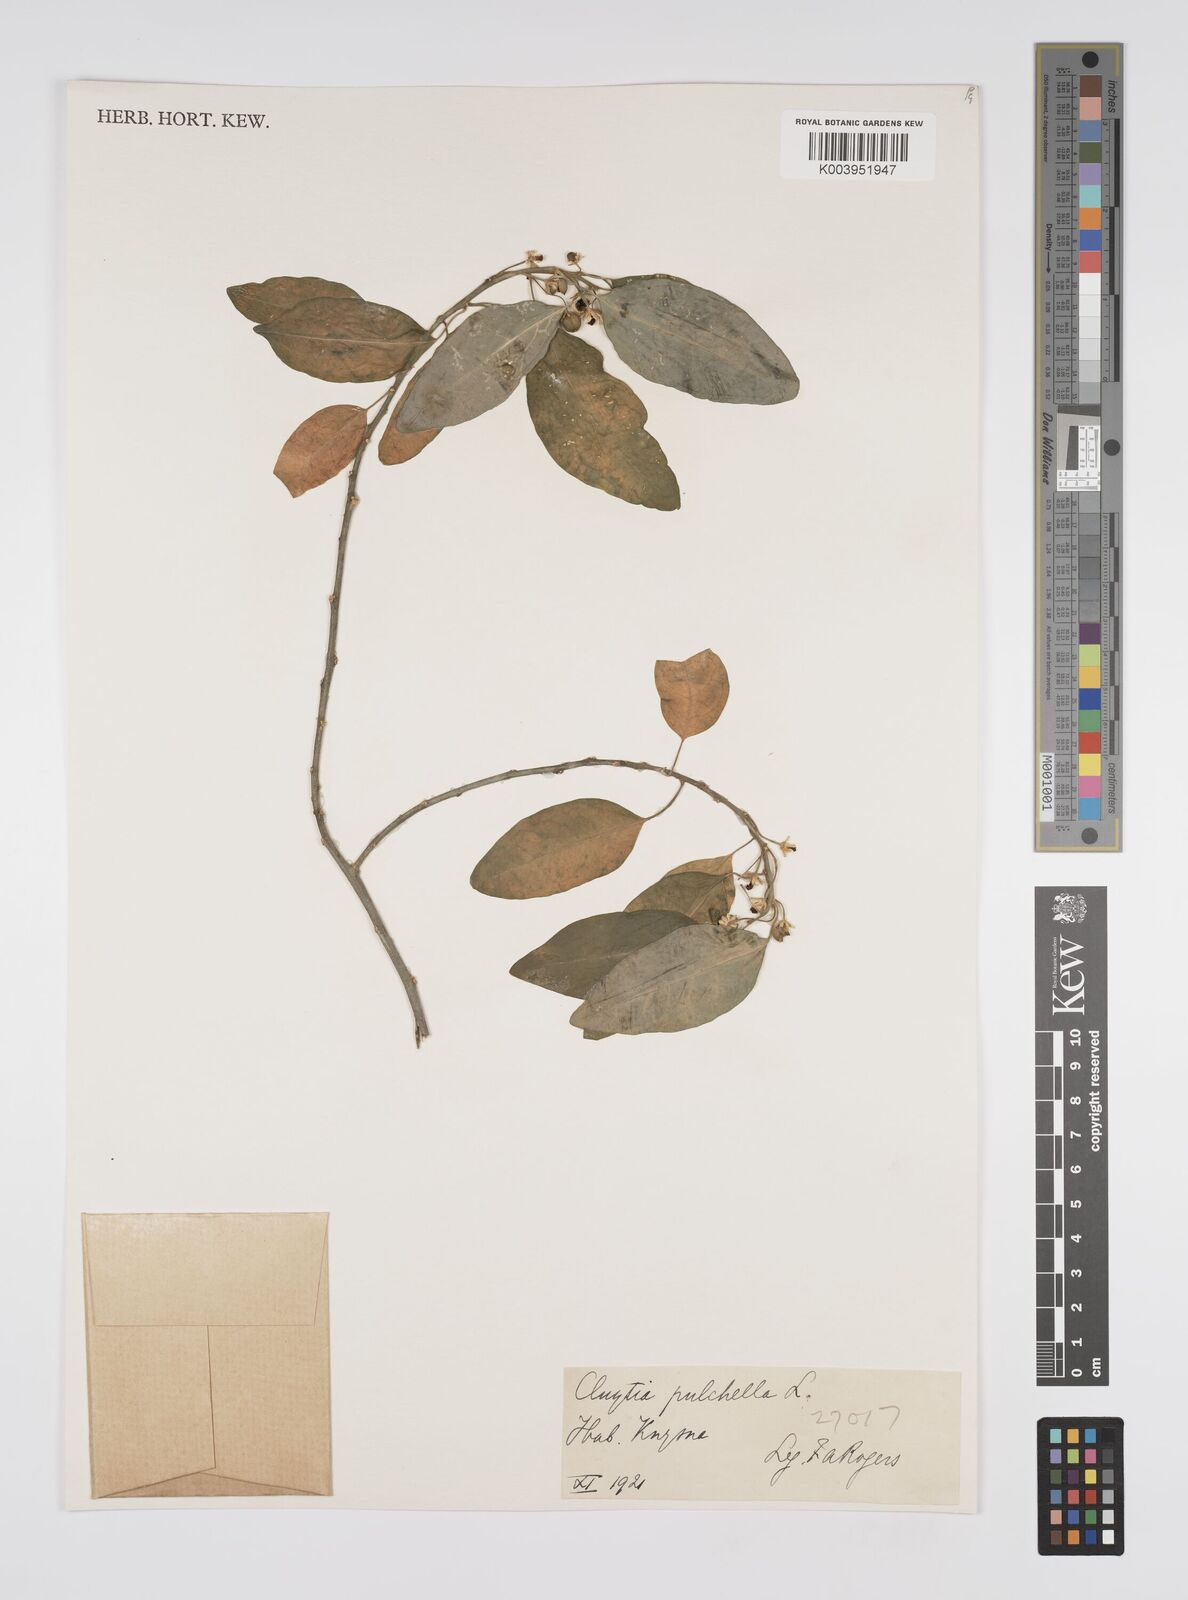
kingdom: Plantae
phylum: Tracheophyta
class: Magnoliopsida
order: Malpighiales
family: Peraceae
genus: Clutia
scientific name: Clutia pulchella
